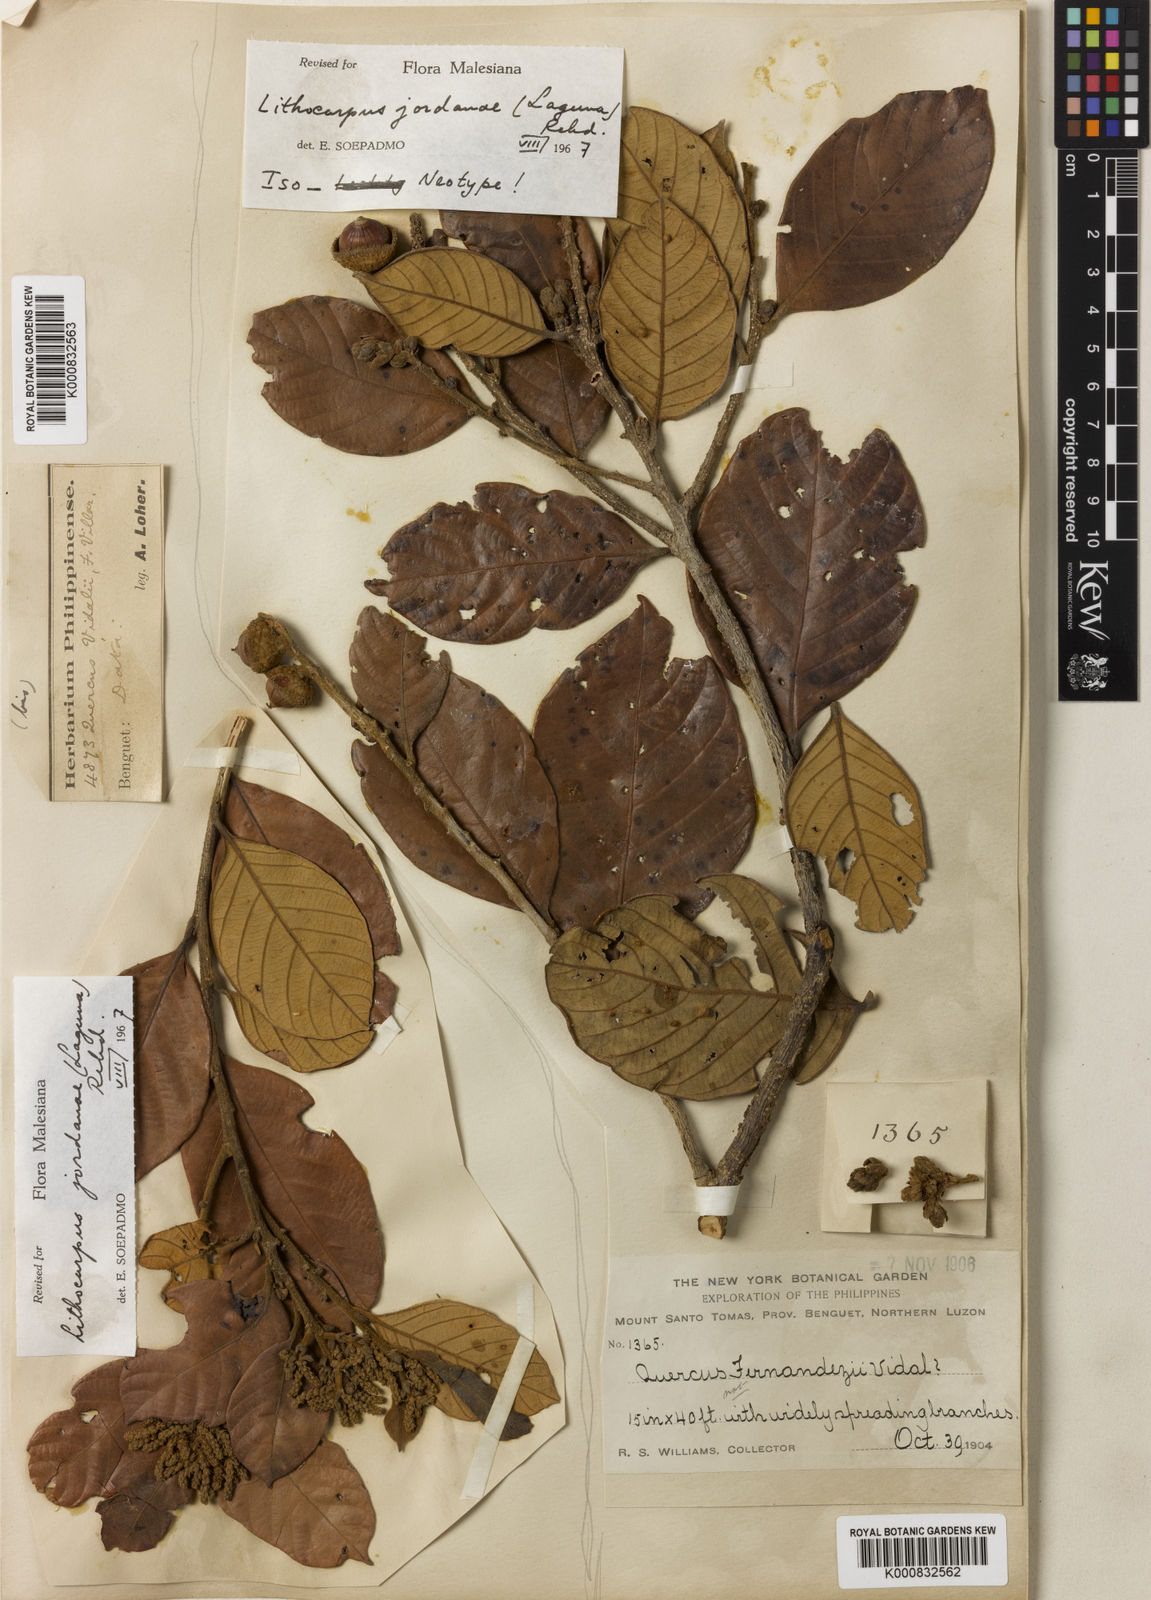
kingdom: Plantae
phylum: Tracheophyta
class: Magnoliopsida
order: Fagales
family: Fagaceae
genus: Lithocarpus
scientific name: Lithocarpus jordanae
